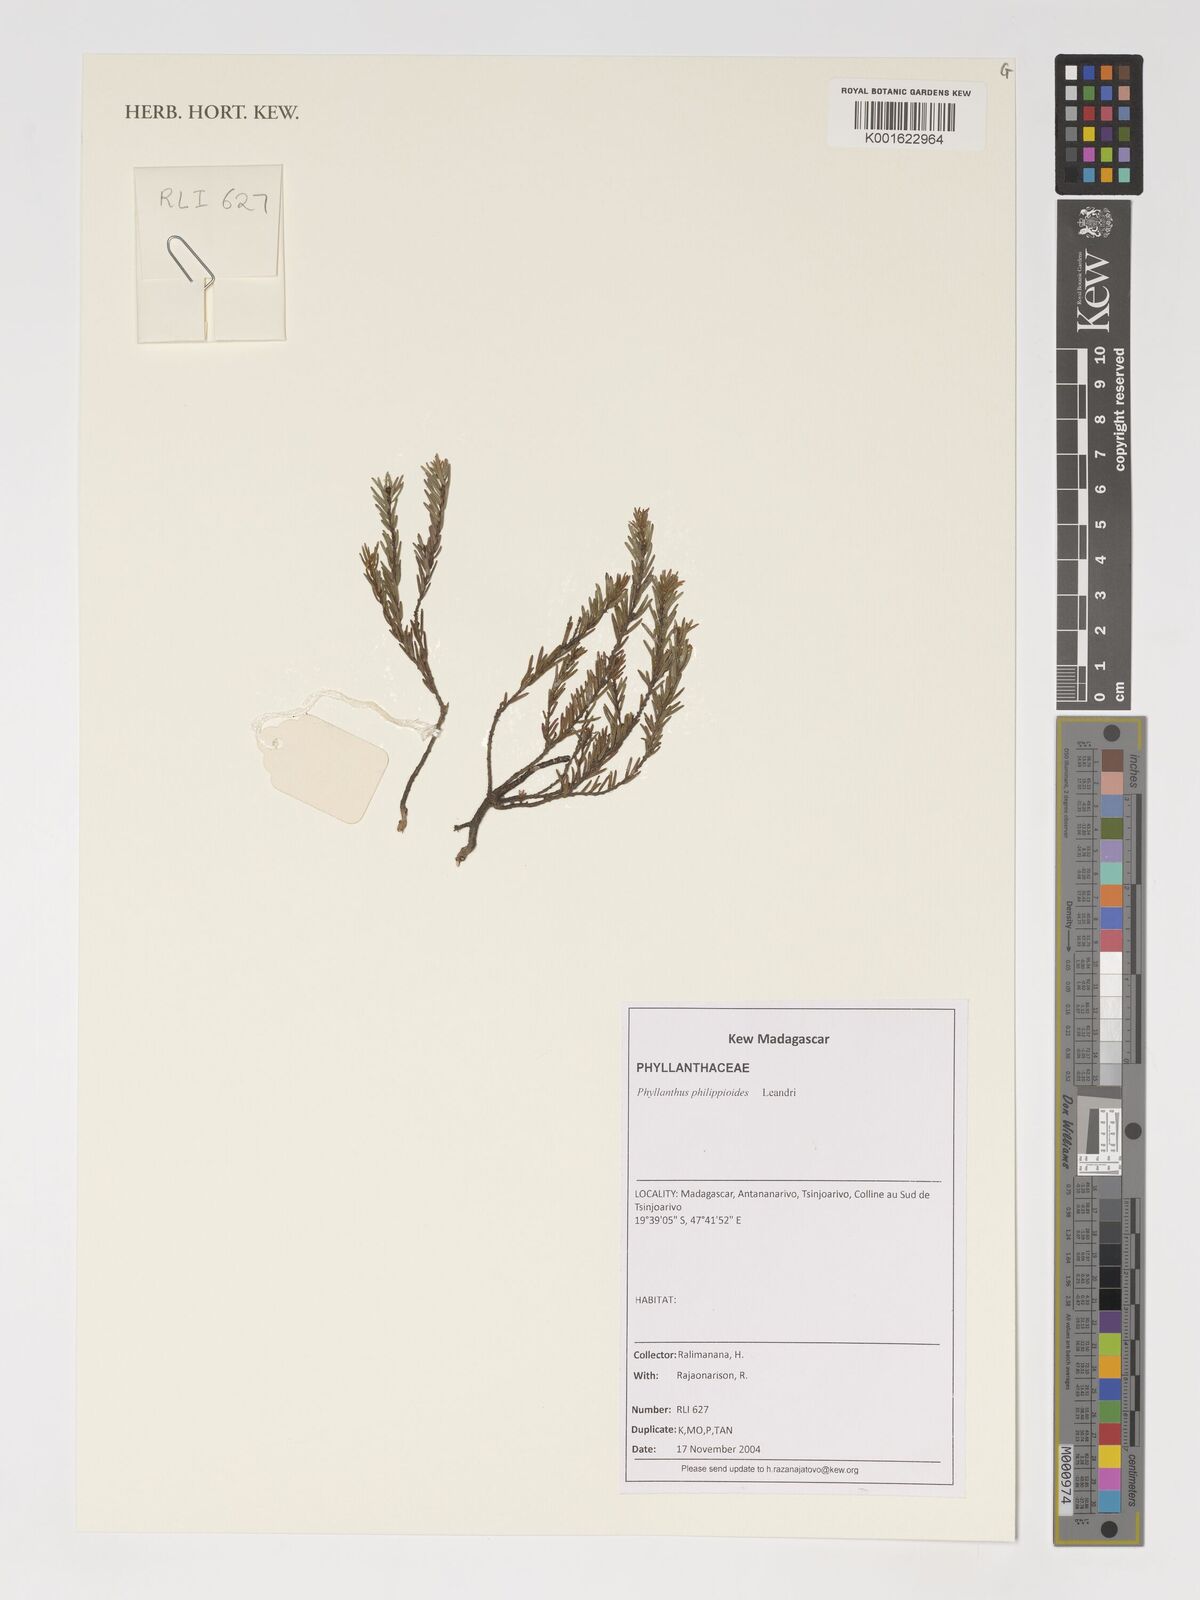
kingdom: Plantae
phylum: Tracheophyta
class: Magnoliopsida
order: Malpighiales
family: Phyllanthaceae
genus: Phyllanthus
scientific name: Phyllanthus philippioides
